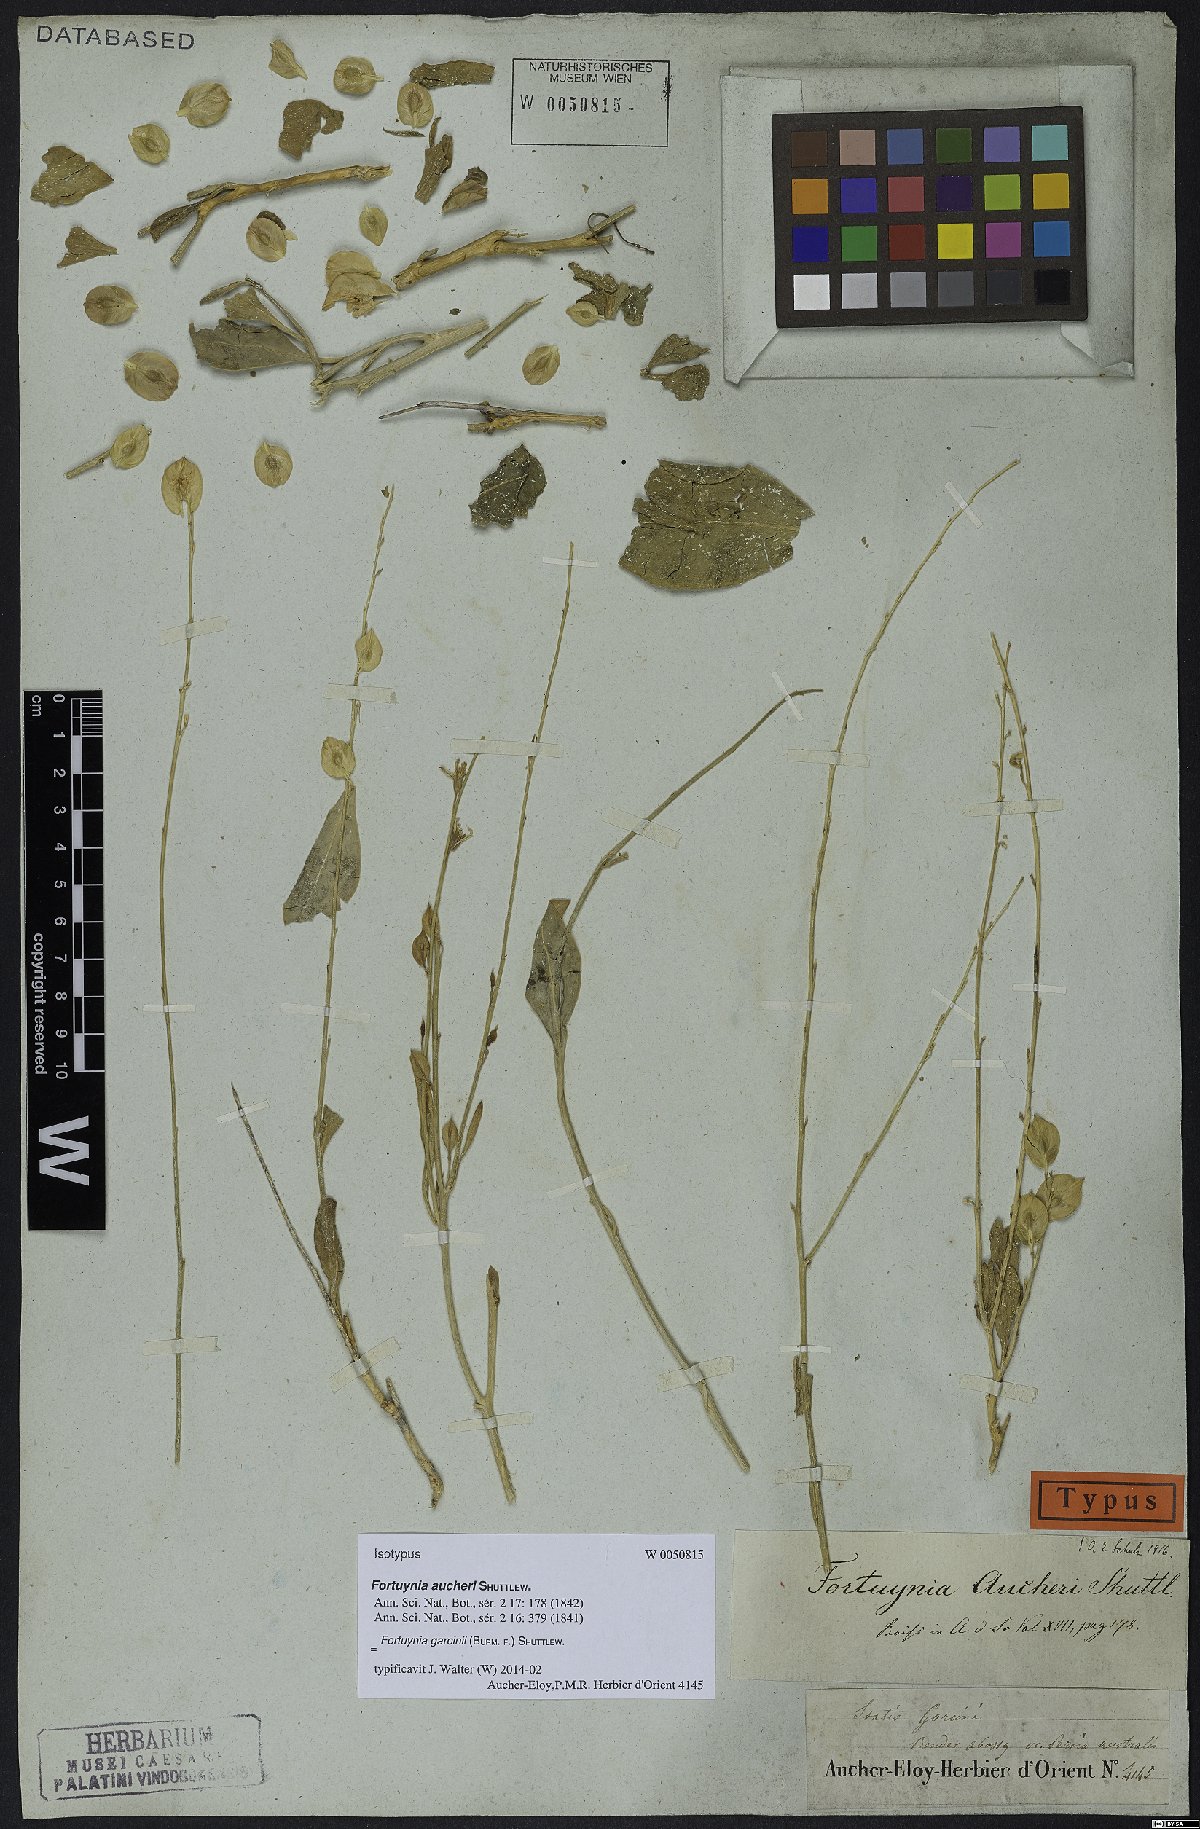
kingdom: Plantae
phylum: Tracheophyta
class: Magnoliopsida
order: Brassicales
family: Brassicaceae
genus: Fortuynia
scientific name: Fortuynia garcinii
